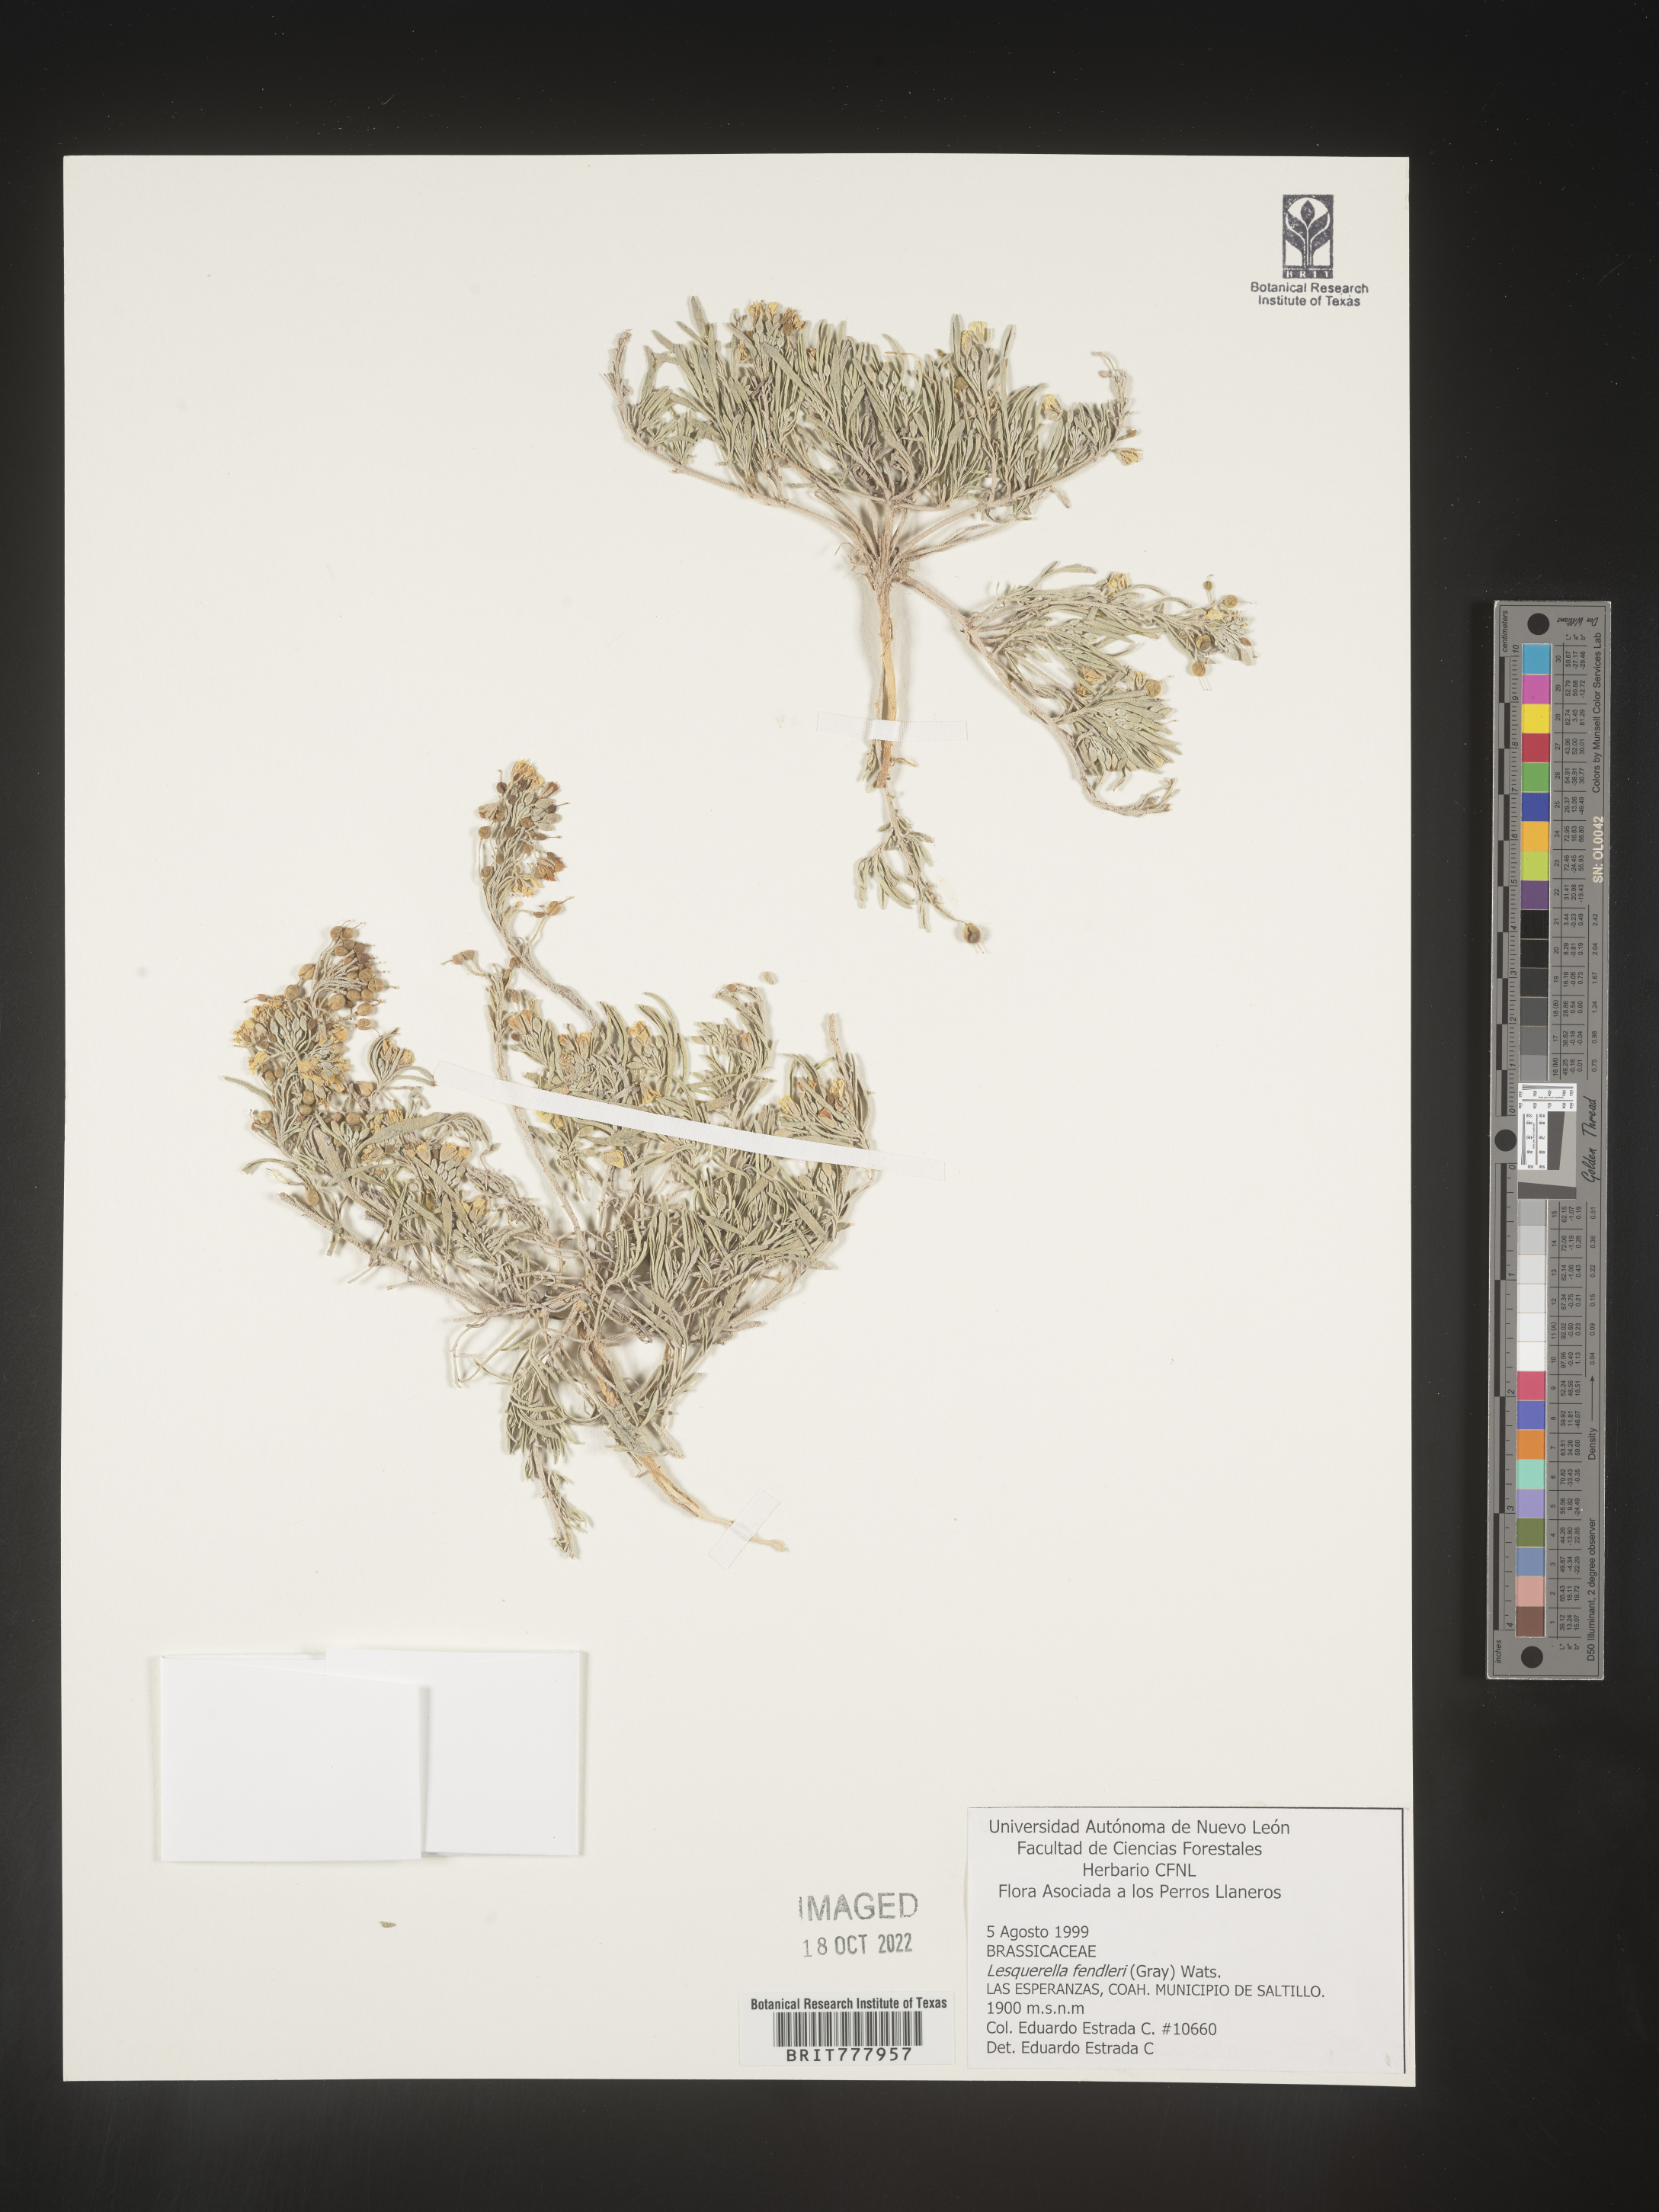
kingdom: Chromista
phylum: Cercozoa
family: Psammonobiotidae
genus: Lesquerella
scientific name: Lesquerella
